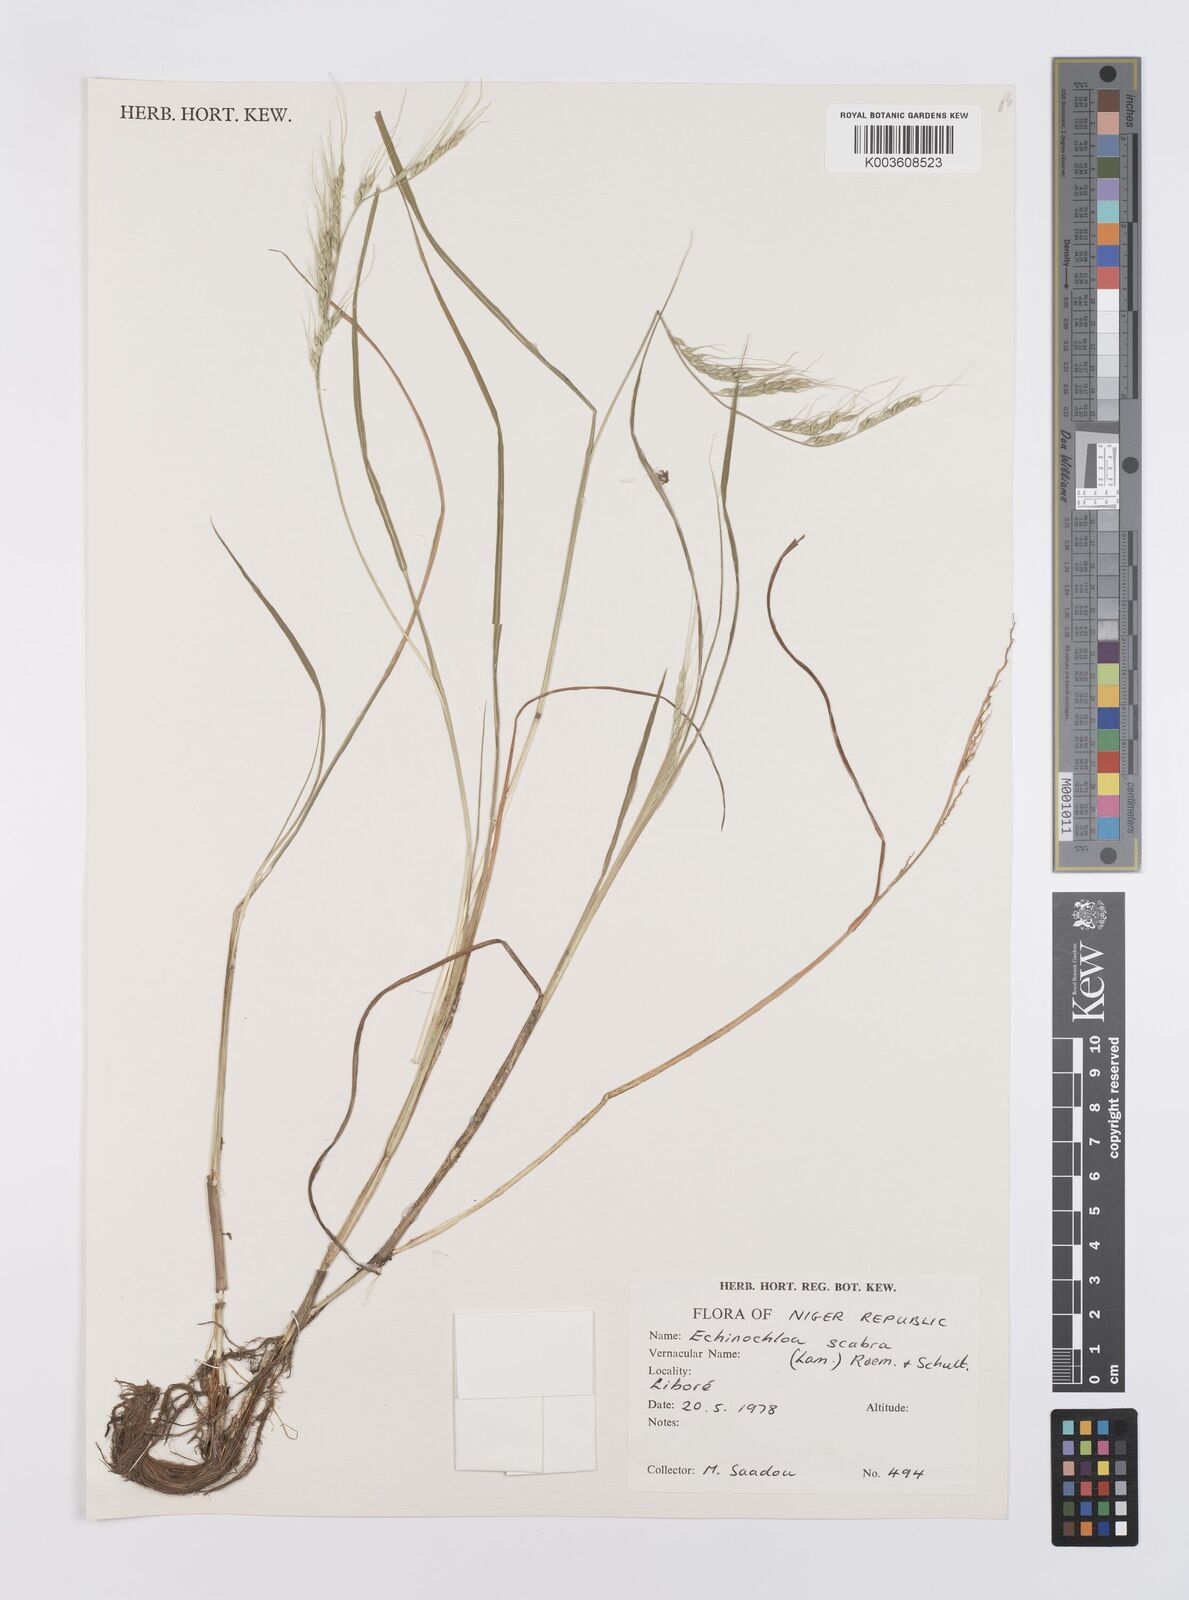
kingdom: Plantae
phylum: Tracheophyta
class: Liliopsida
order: Poales
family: Poaceae
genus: Echinochloa
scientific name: Echinochloa stagnina
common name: Burgu grass
